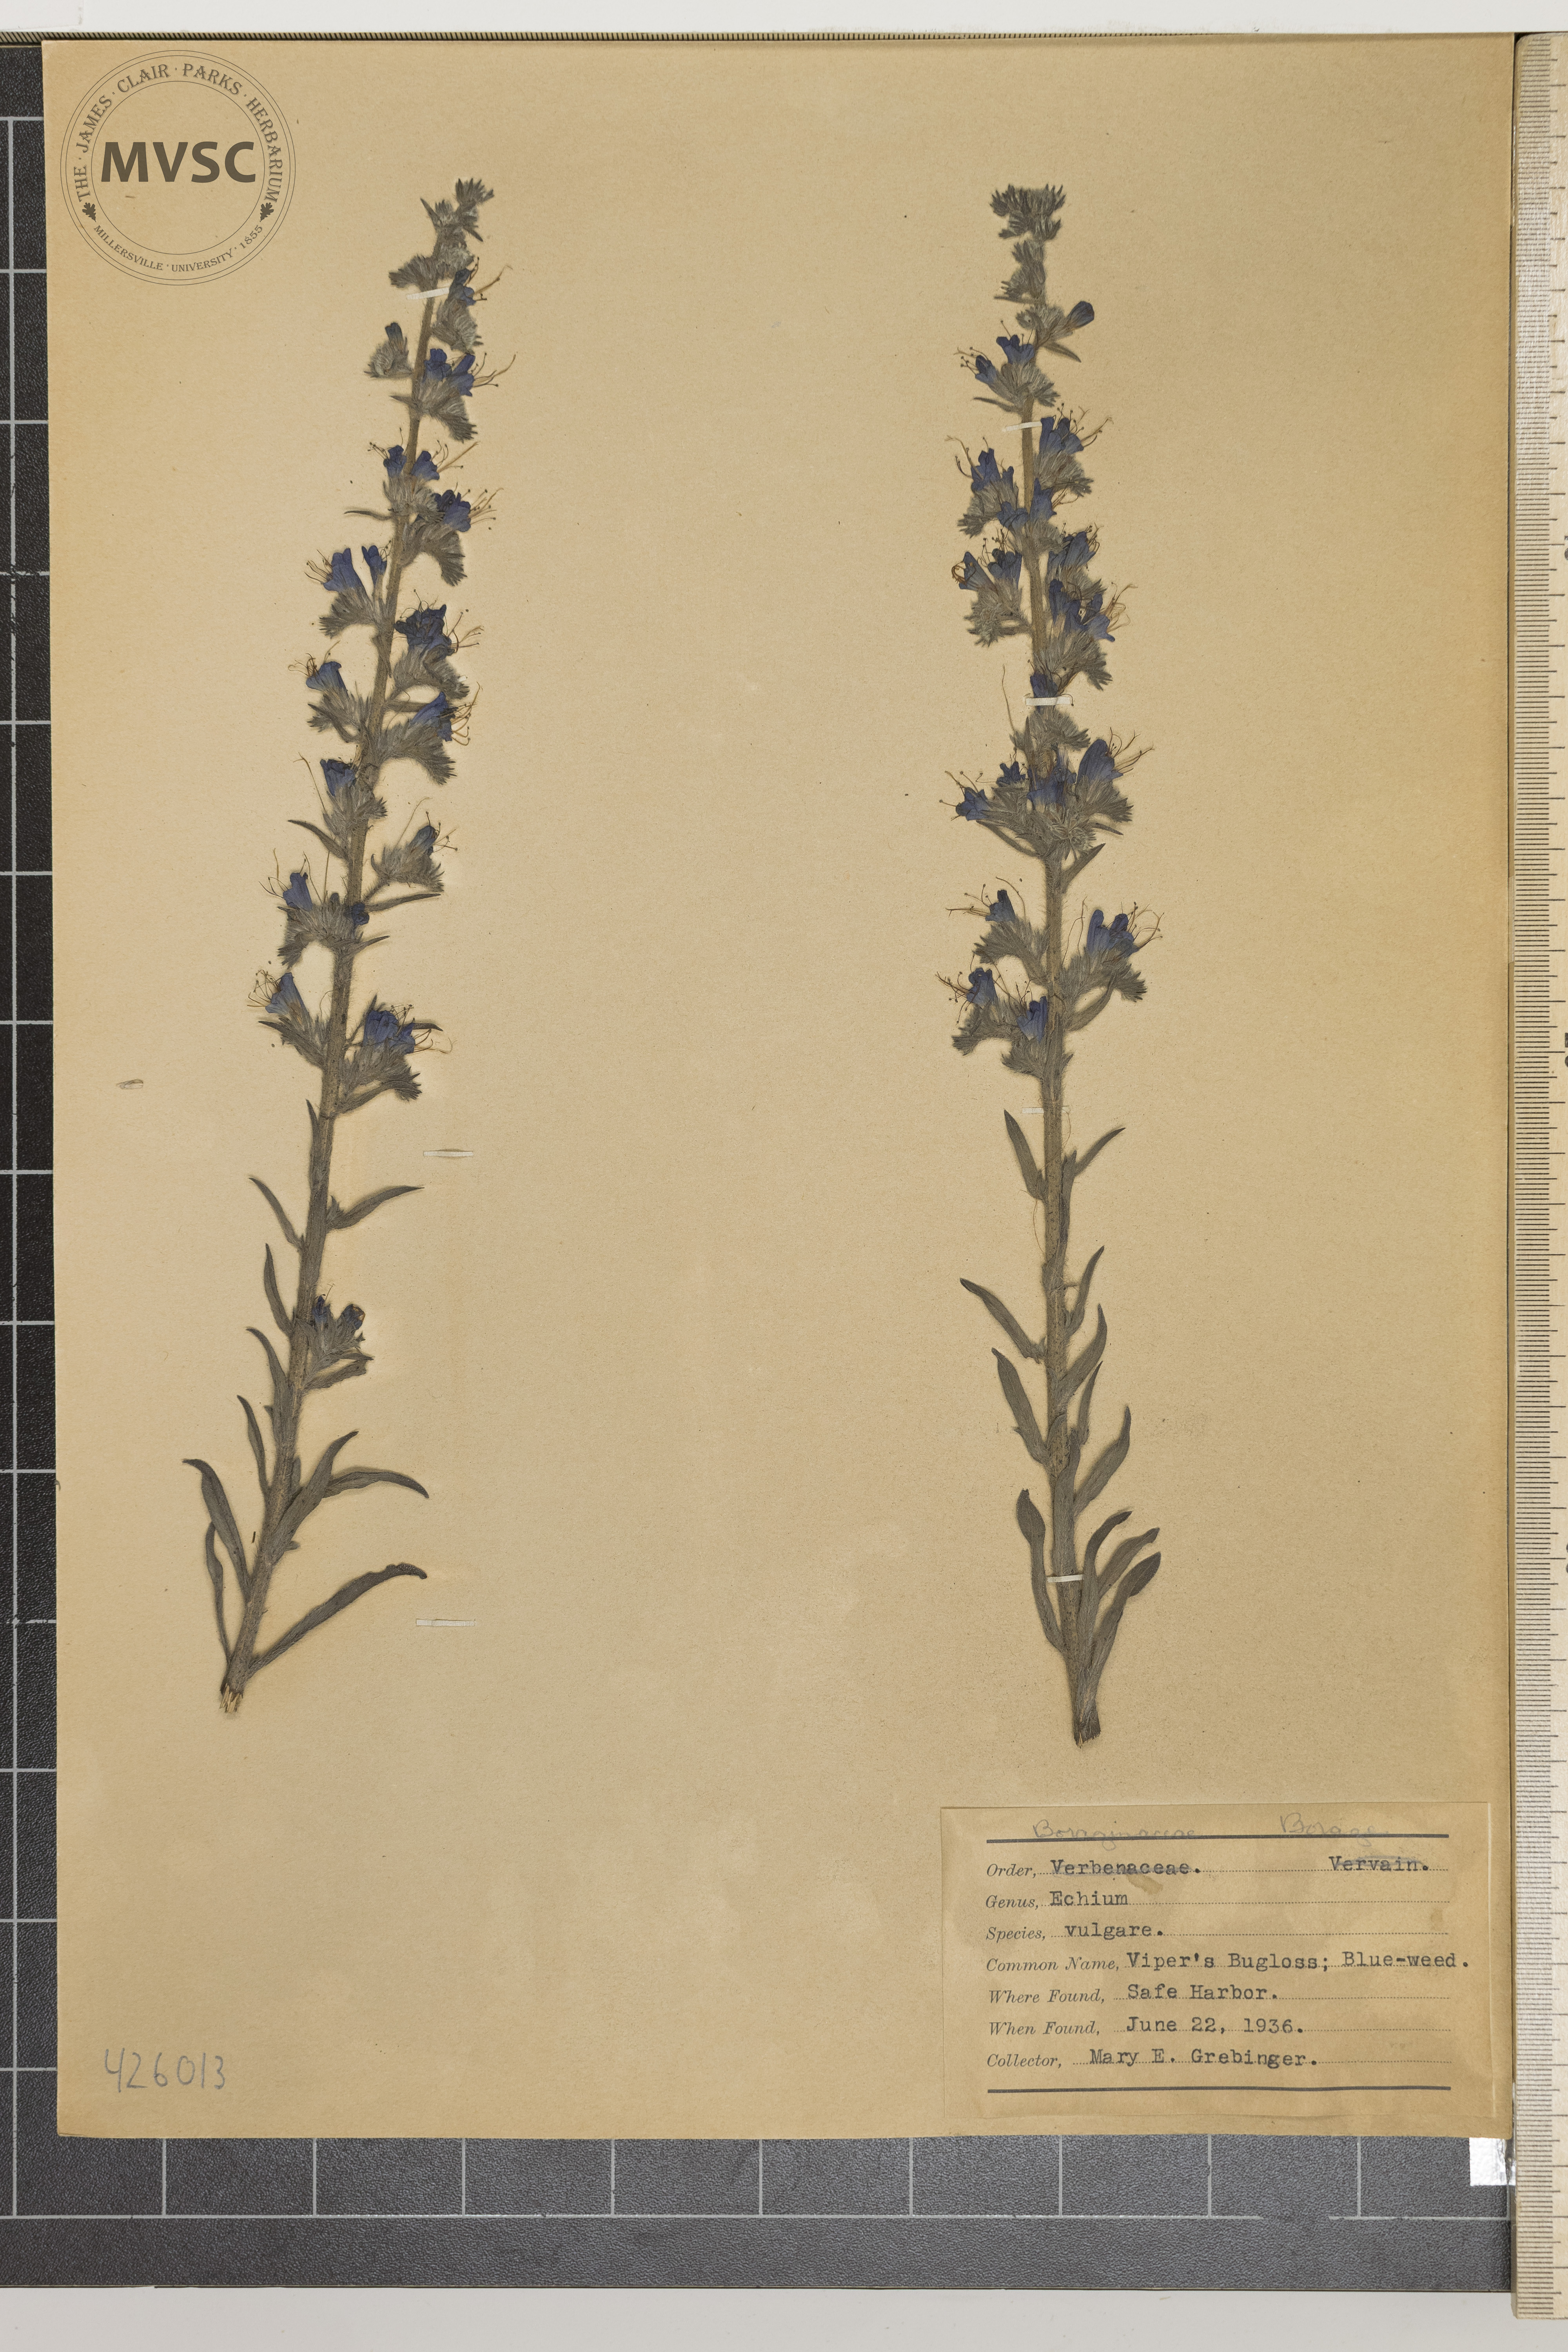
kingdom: Plantae
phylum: Tracheophyta
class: Magnoliopsida
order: Boraginales
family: Boraginaceae
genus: Echium
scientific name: Echium vulgare
